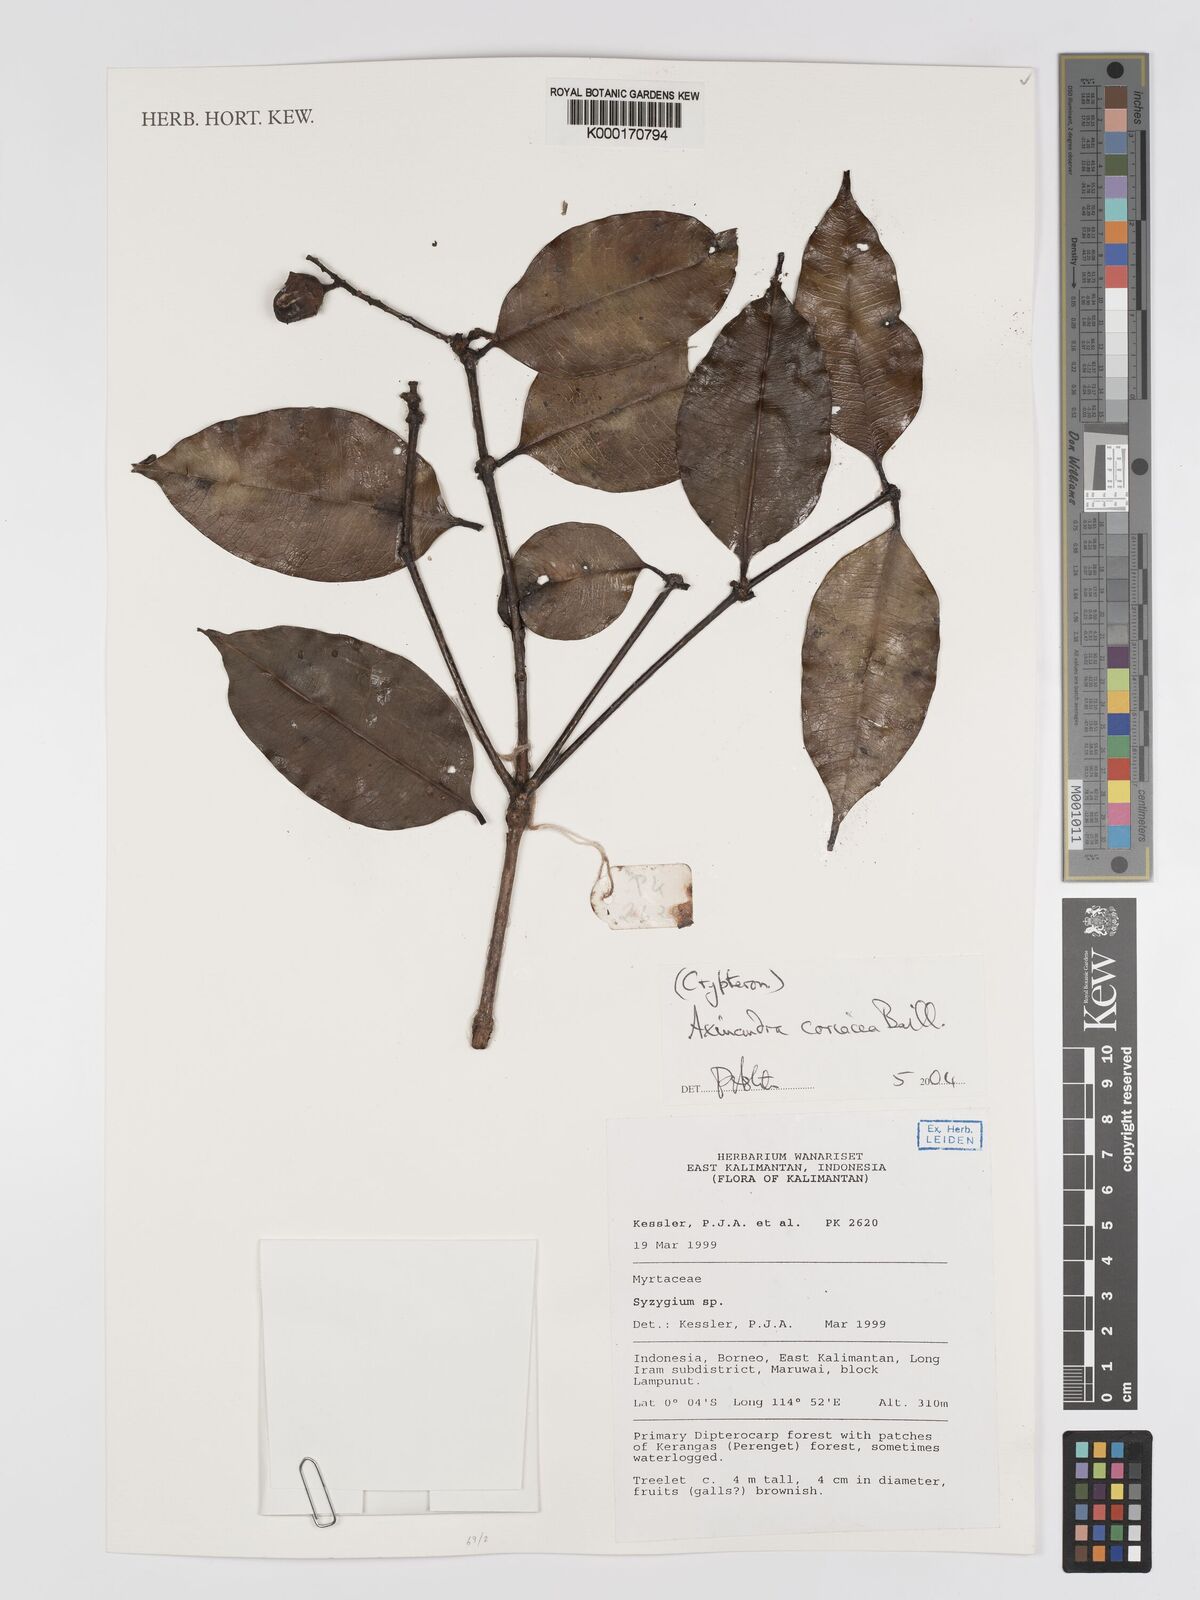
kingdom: Plantae
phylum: Tracheophyta
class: Magnoliopsida
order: Myrtales
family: Crypteroniaceae
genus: Axinandra
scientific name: Axinandra coriacea
